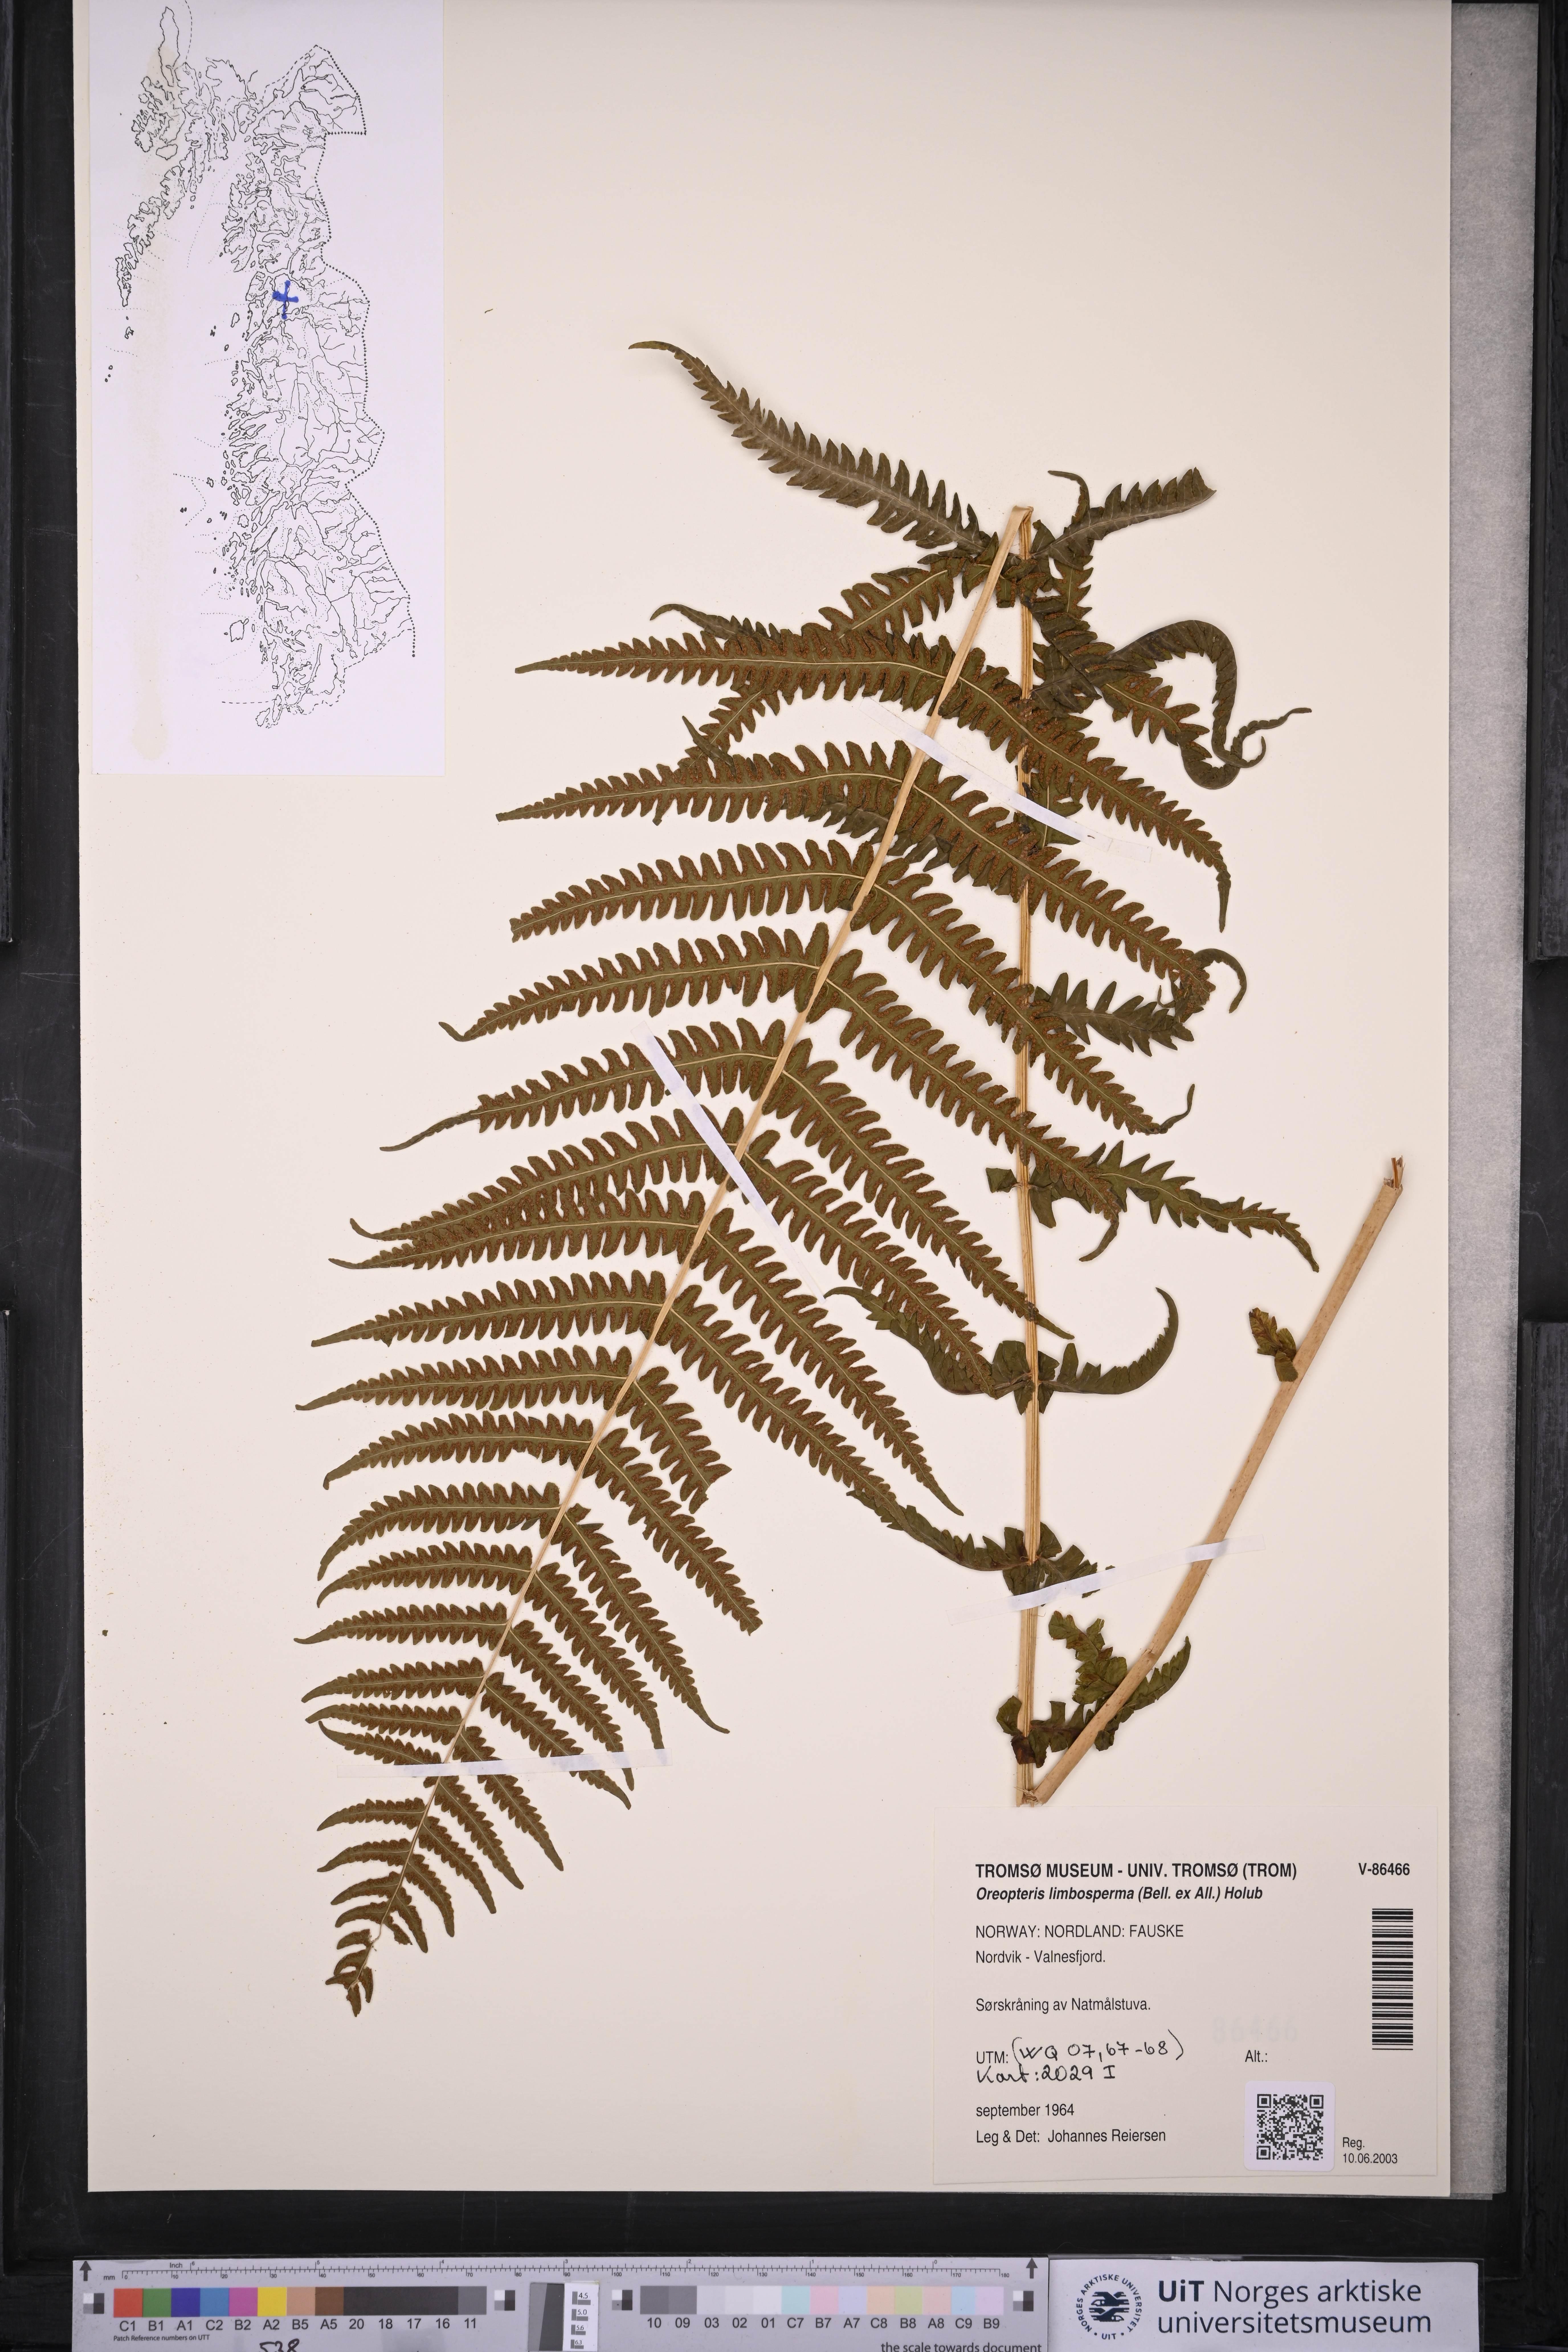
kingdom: Plantae
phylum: Tracheophyta
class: Polypodiopsida
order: Polypodiales
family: Thelypteridaceae
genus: Oreopteris
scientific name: Oreopteris limbosperma
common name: Lemon-scented fern
